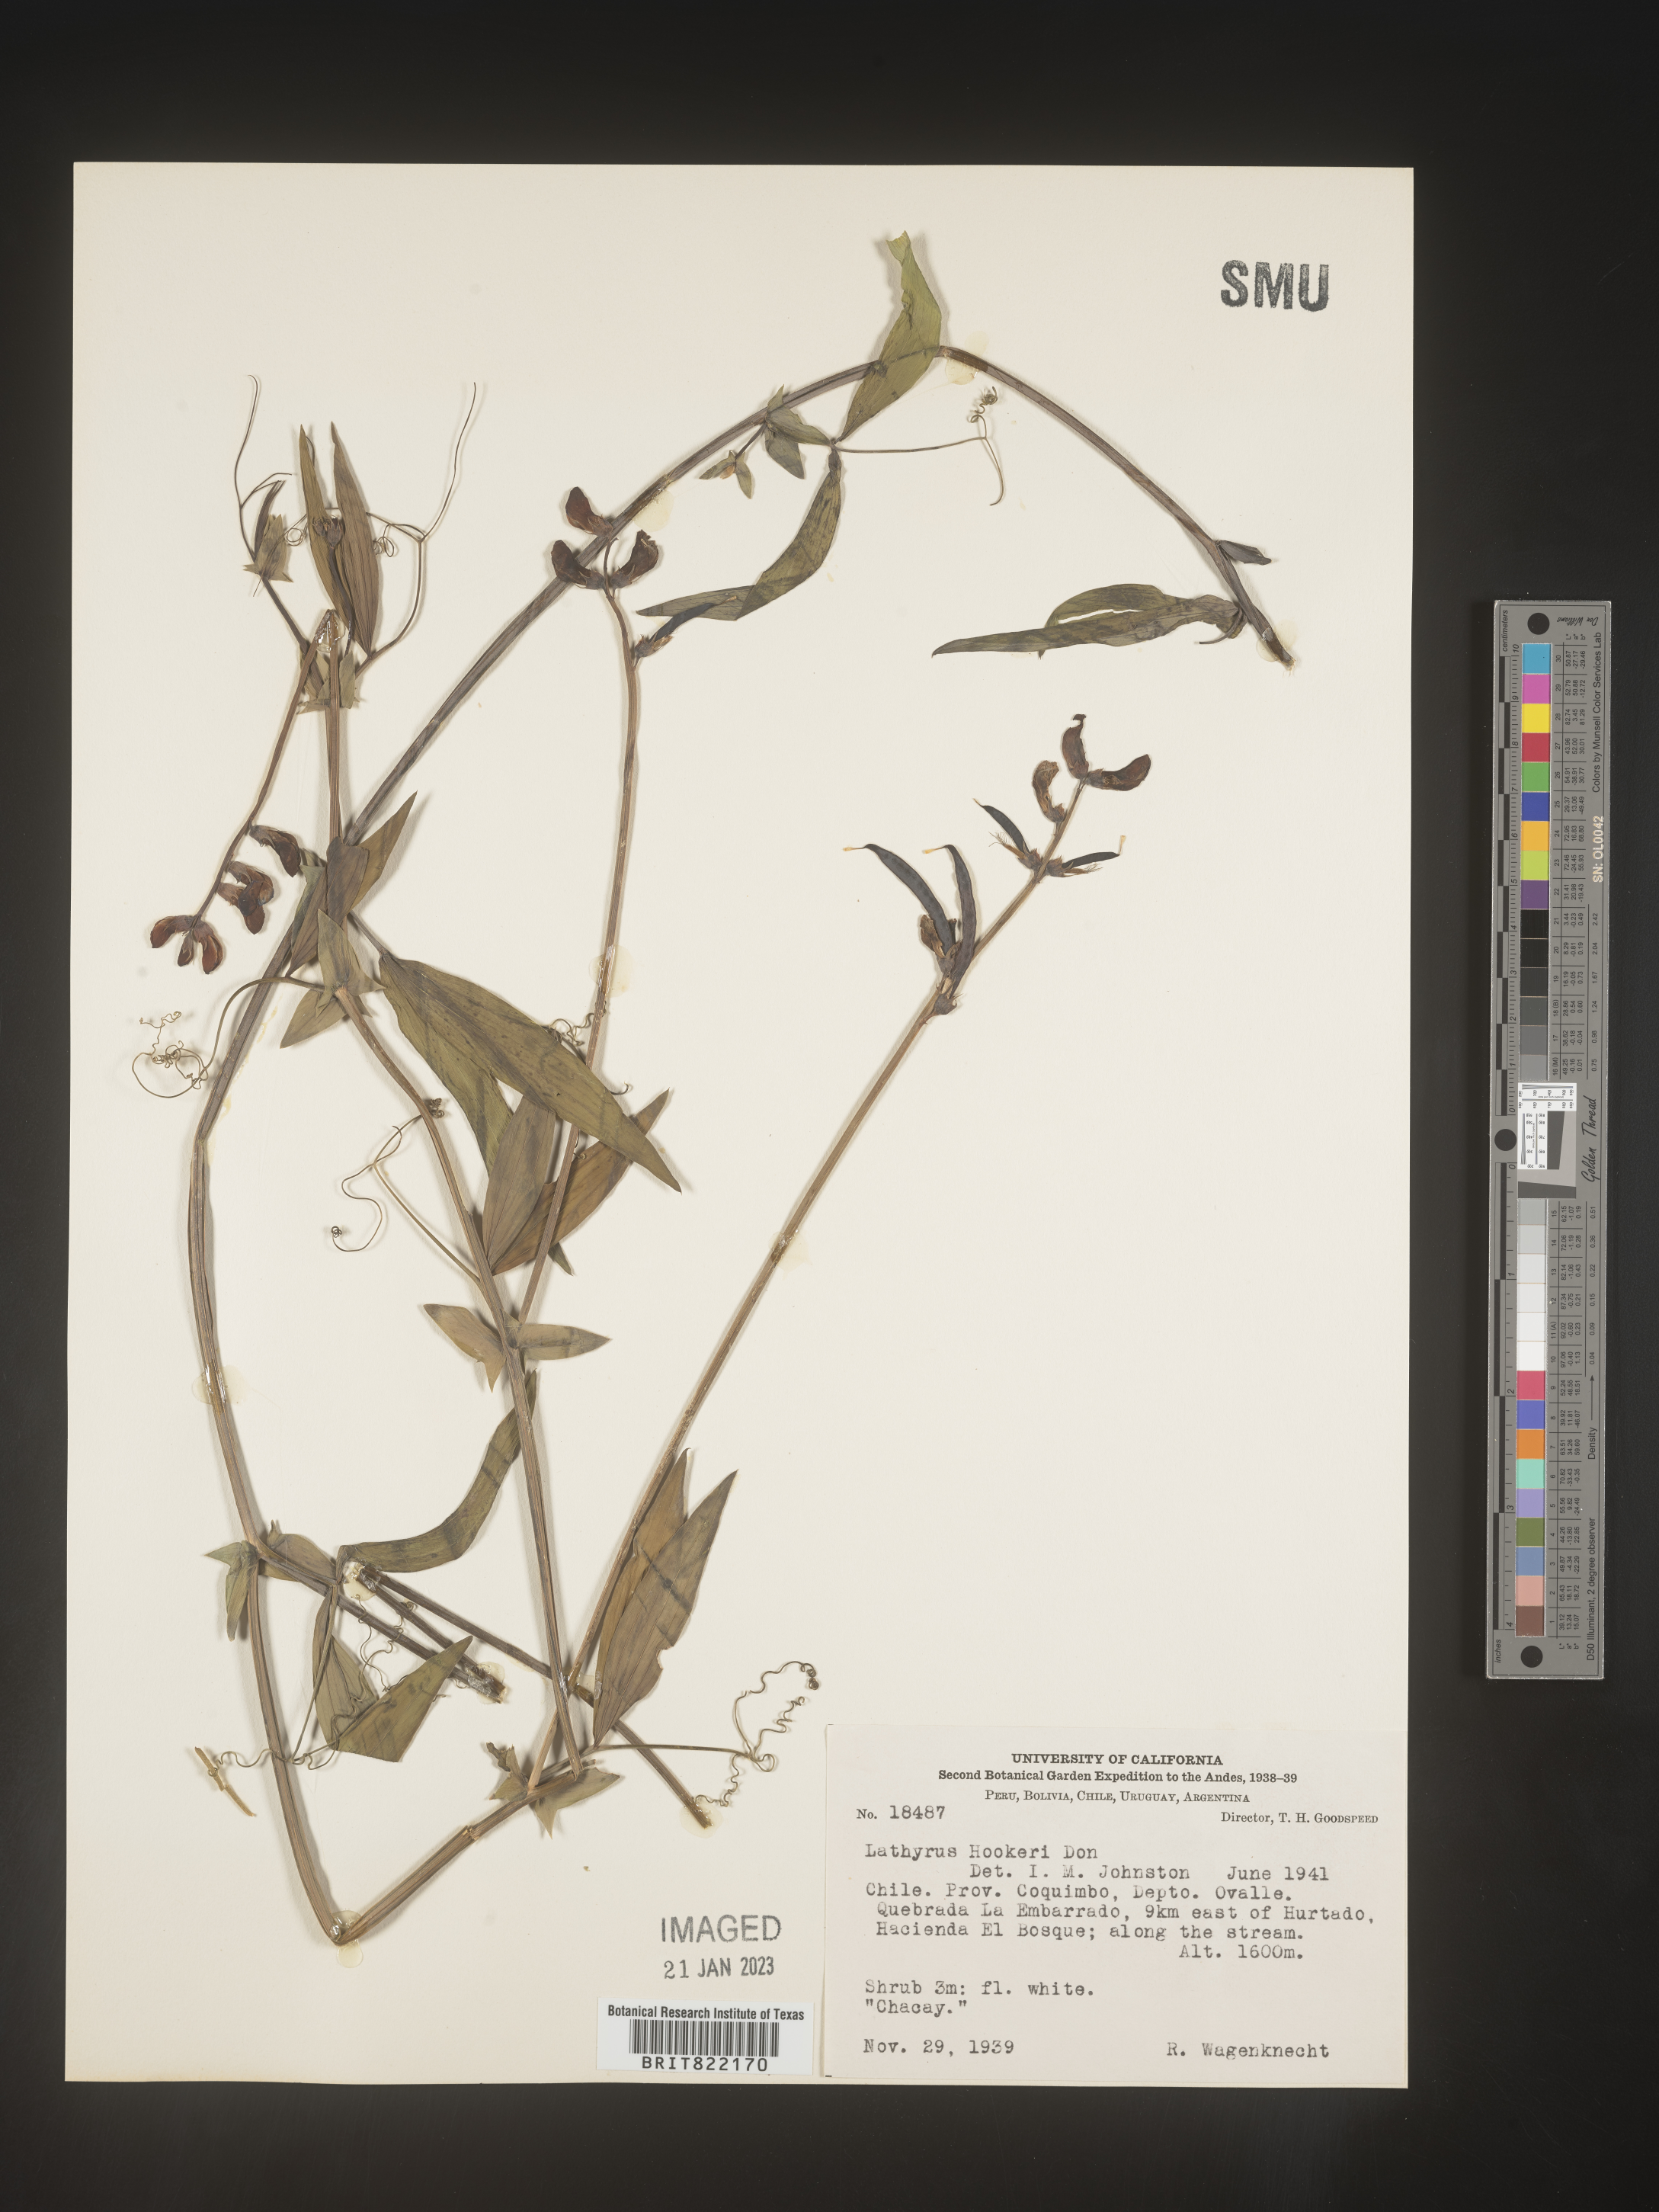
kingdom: Plantae
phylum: Tracheophyta
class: Magnoliopsida
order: Fabales
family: Fabaceae
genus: Lathyrus
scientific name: Lathyrus
